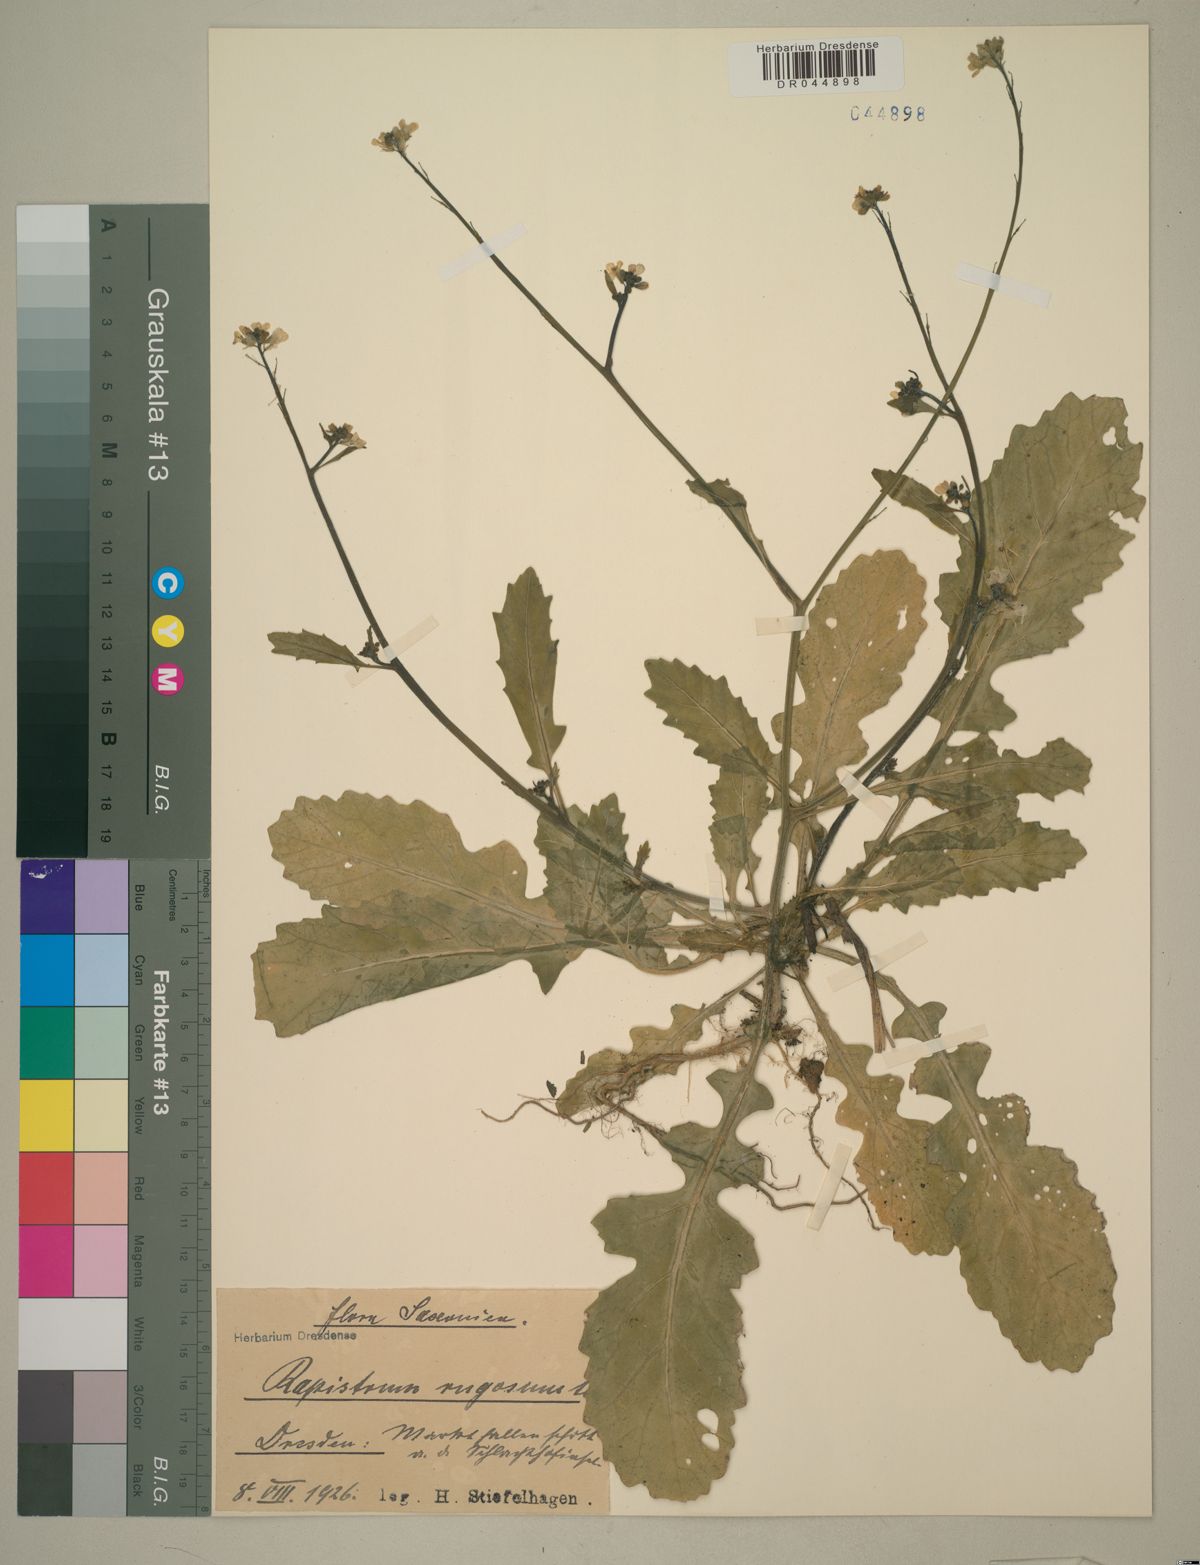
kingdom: Plantae
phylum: Tracheophyta
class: Magnoliopsida
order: Brassicales
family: Brassicaceae
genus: Rapistrum
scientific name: Rapistrum rugosum
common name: Annual bastardcabbage
